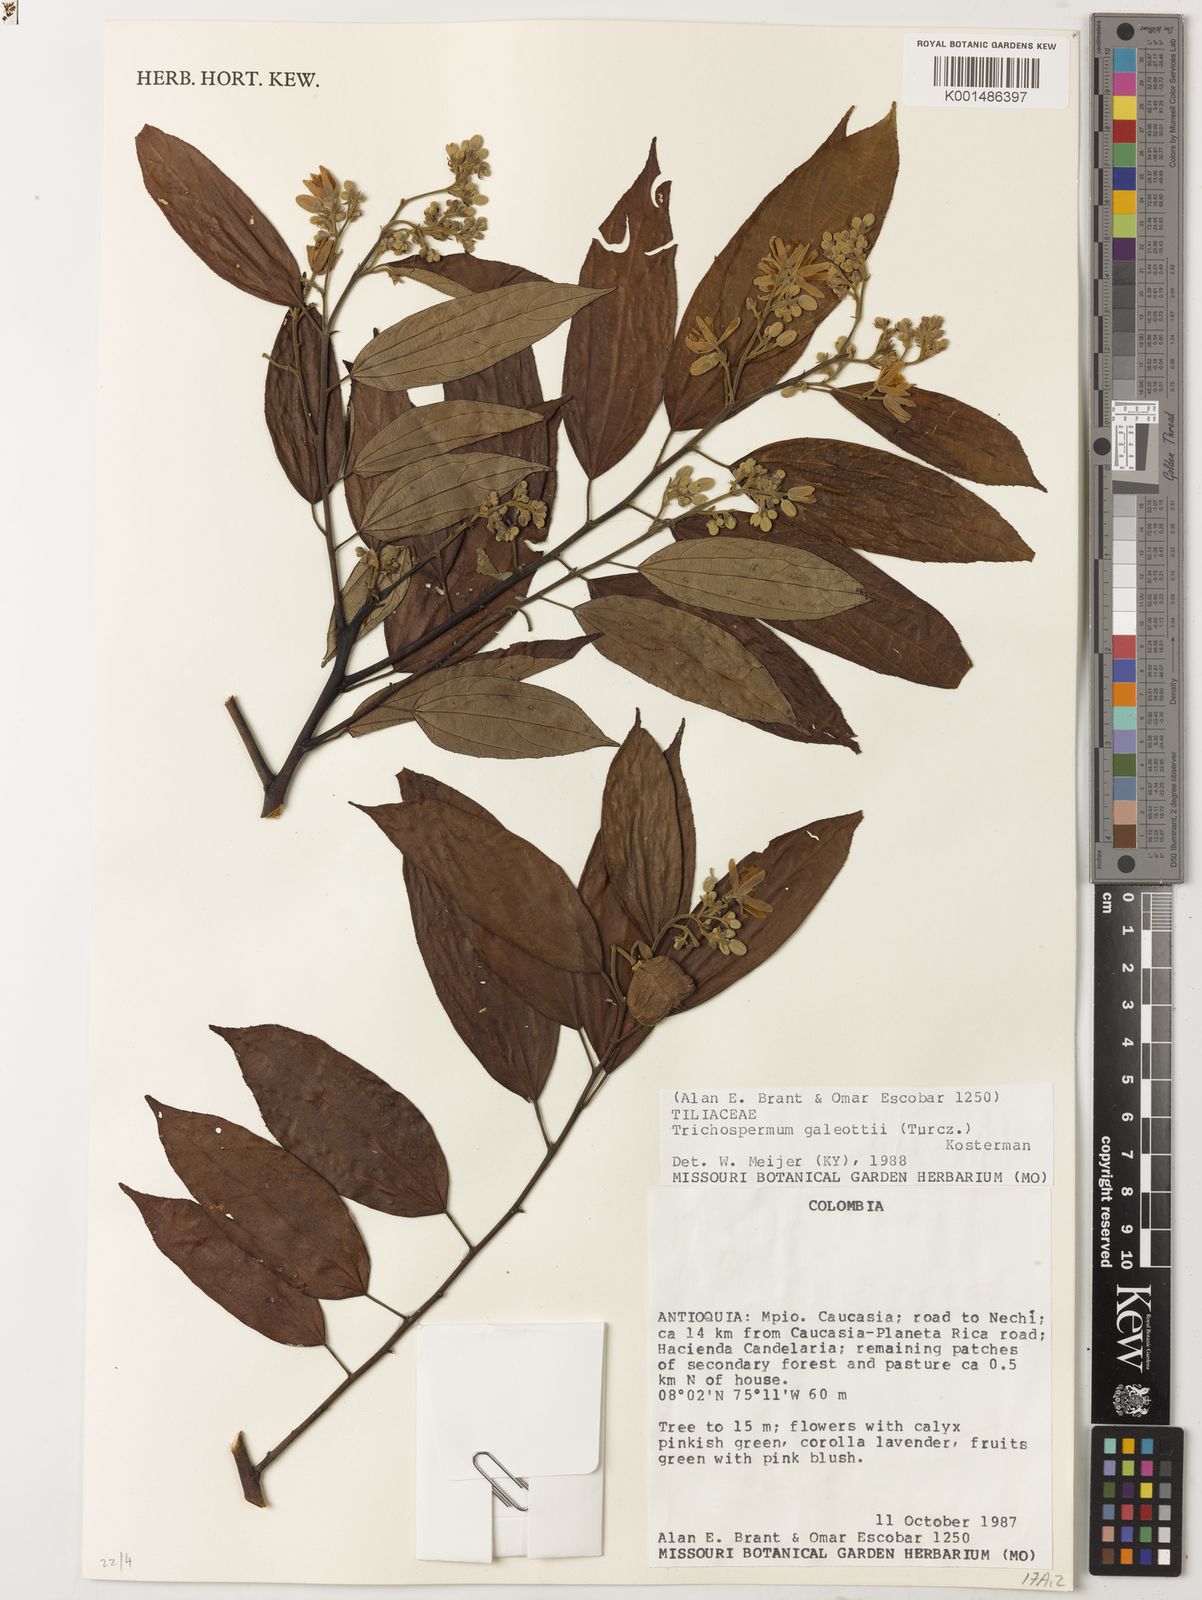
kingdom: Plantae
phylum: Tracheophyta
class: Magnoliopsida
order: Malvales
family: Malvaceae
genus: Trichospermum
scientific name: Trichospermum galeottii
